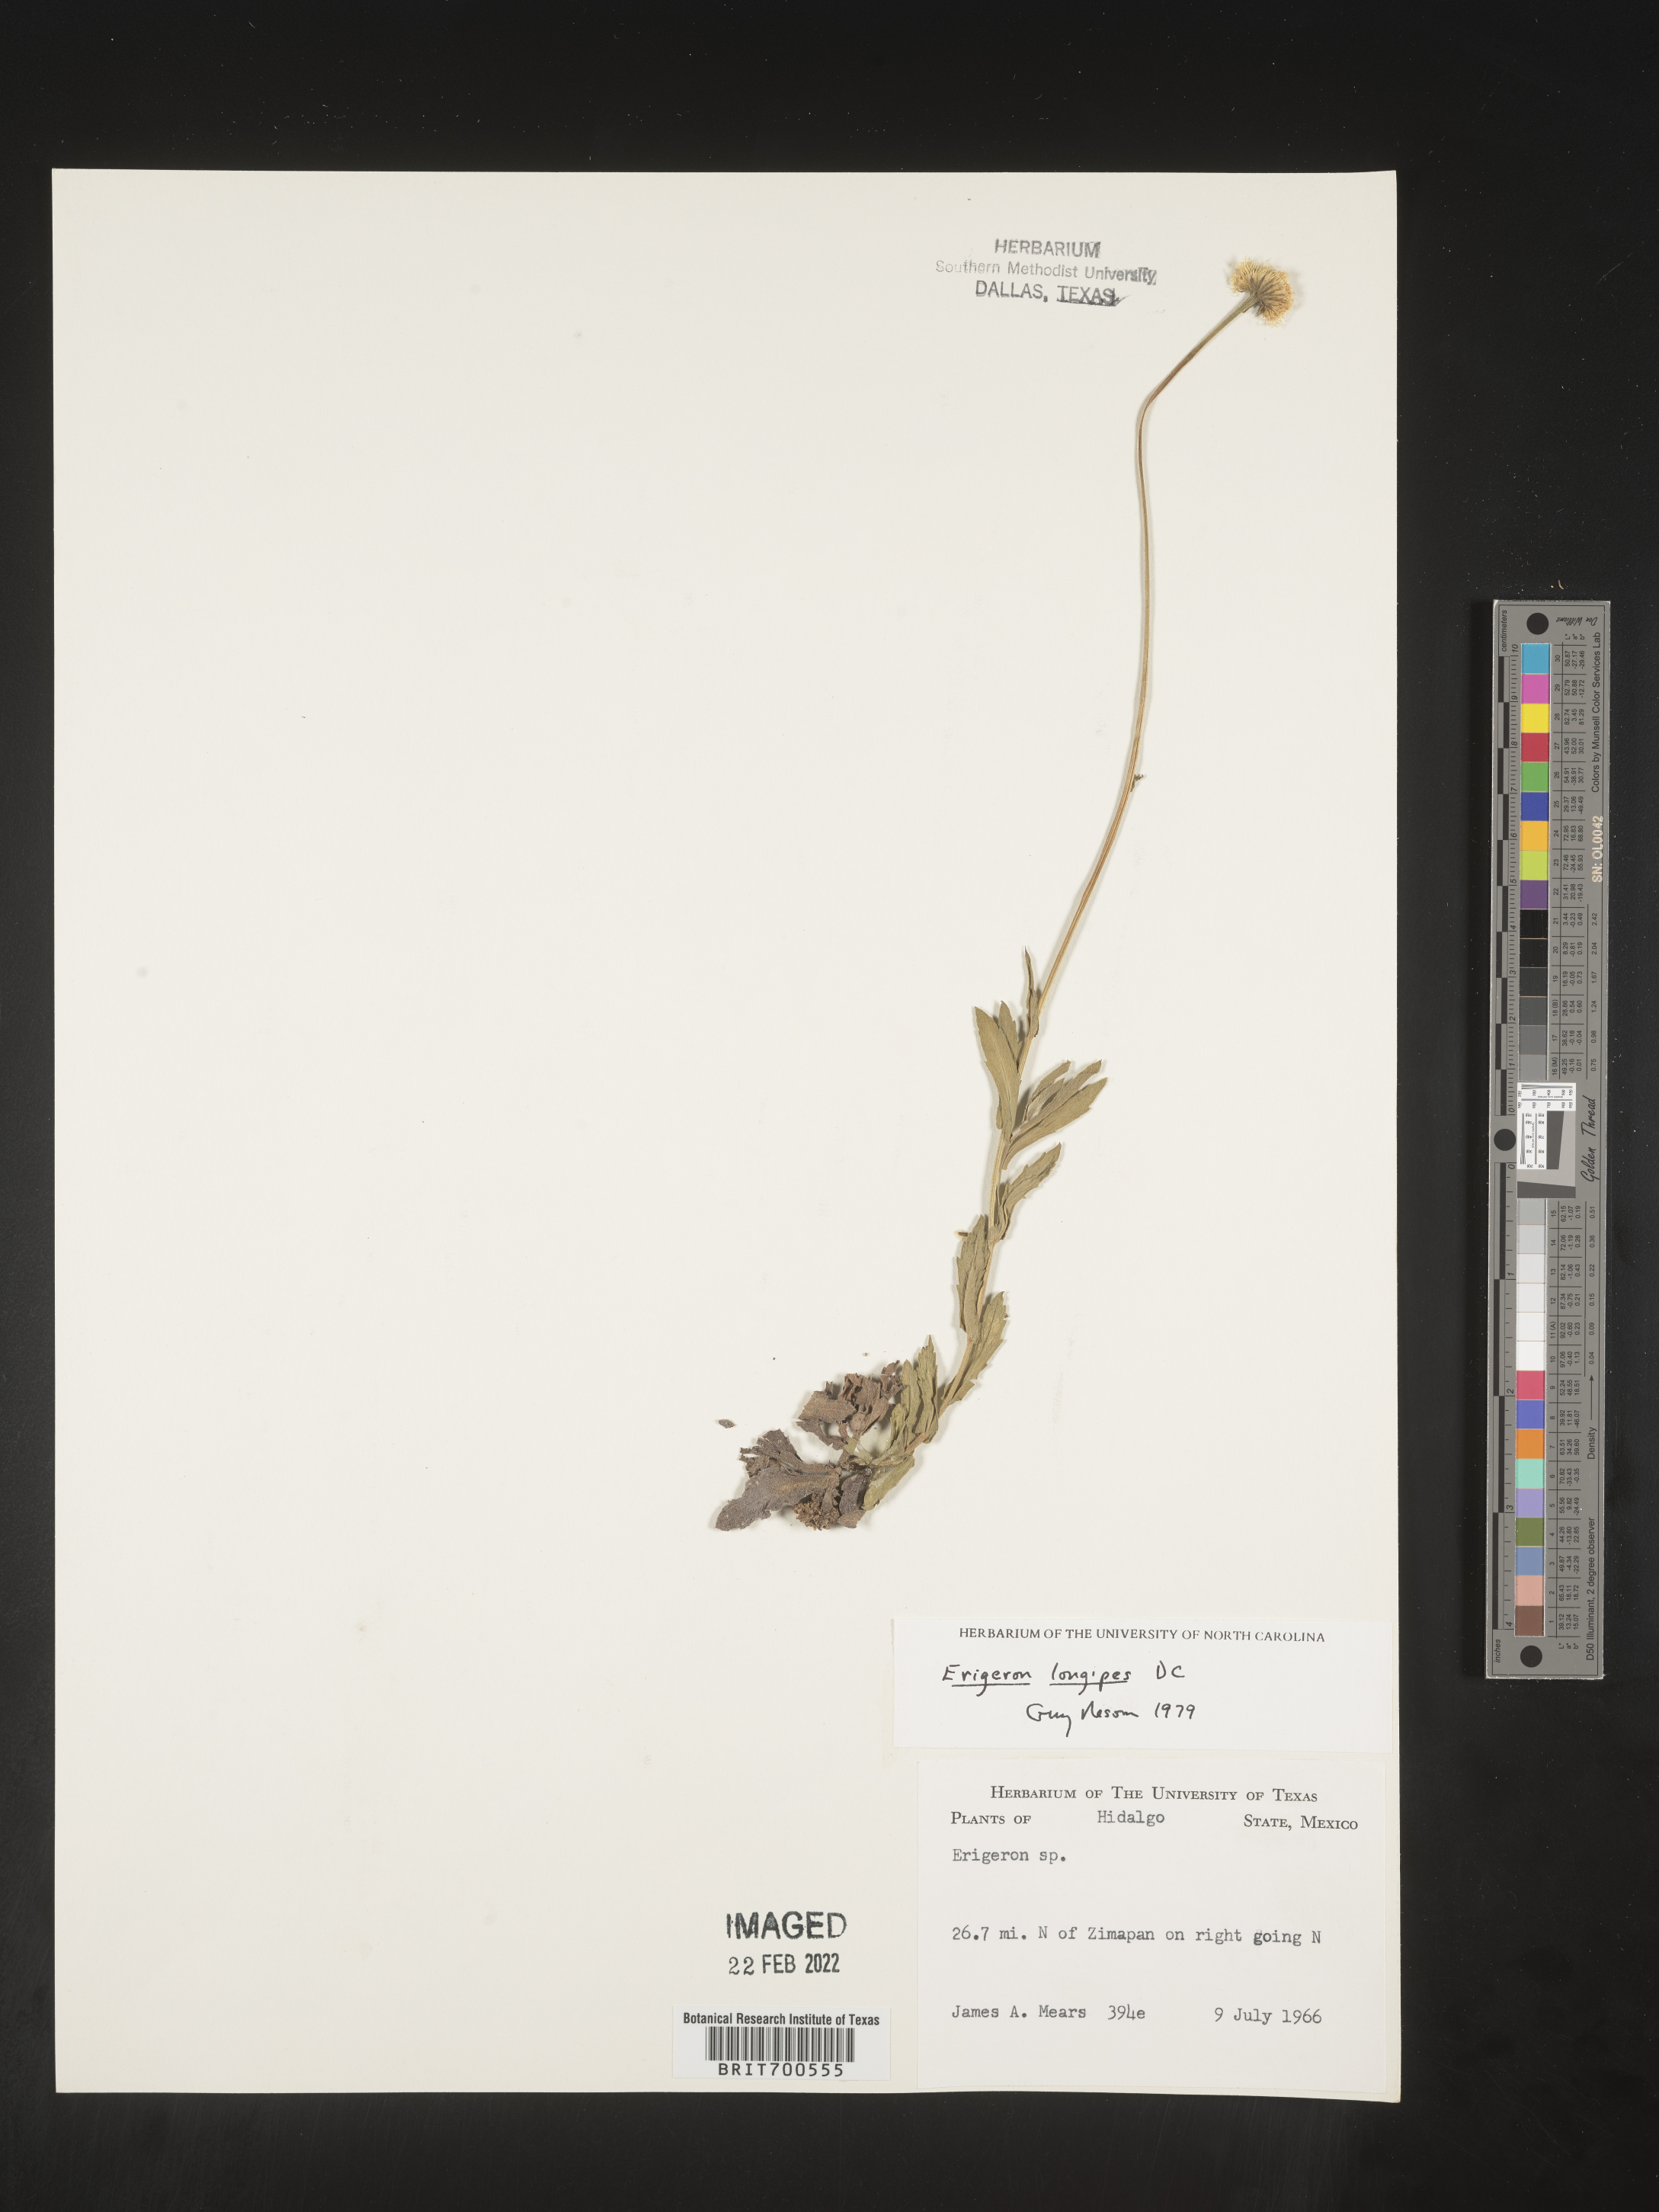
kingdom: Plantae
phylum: Tracheophyta
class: Magnoliopsida
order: Asterales
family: Asteraceae
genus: Erigeron
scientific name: Erigeron longipes
